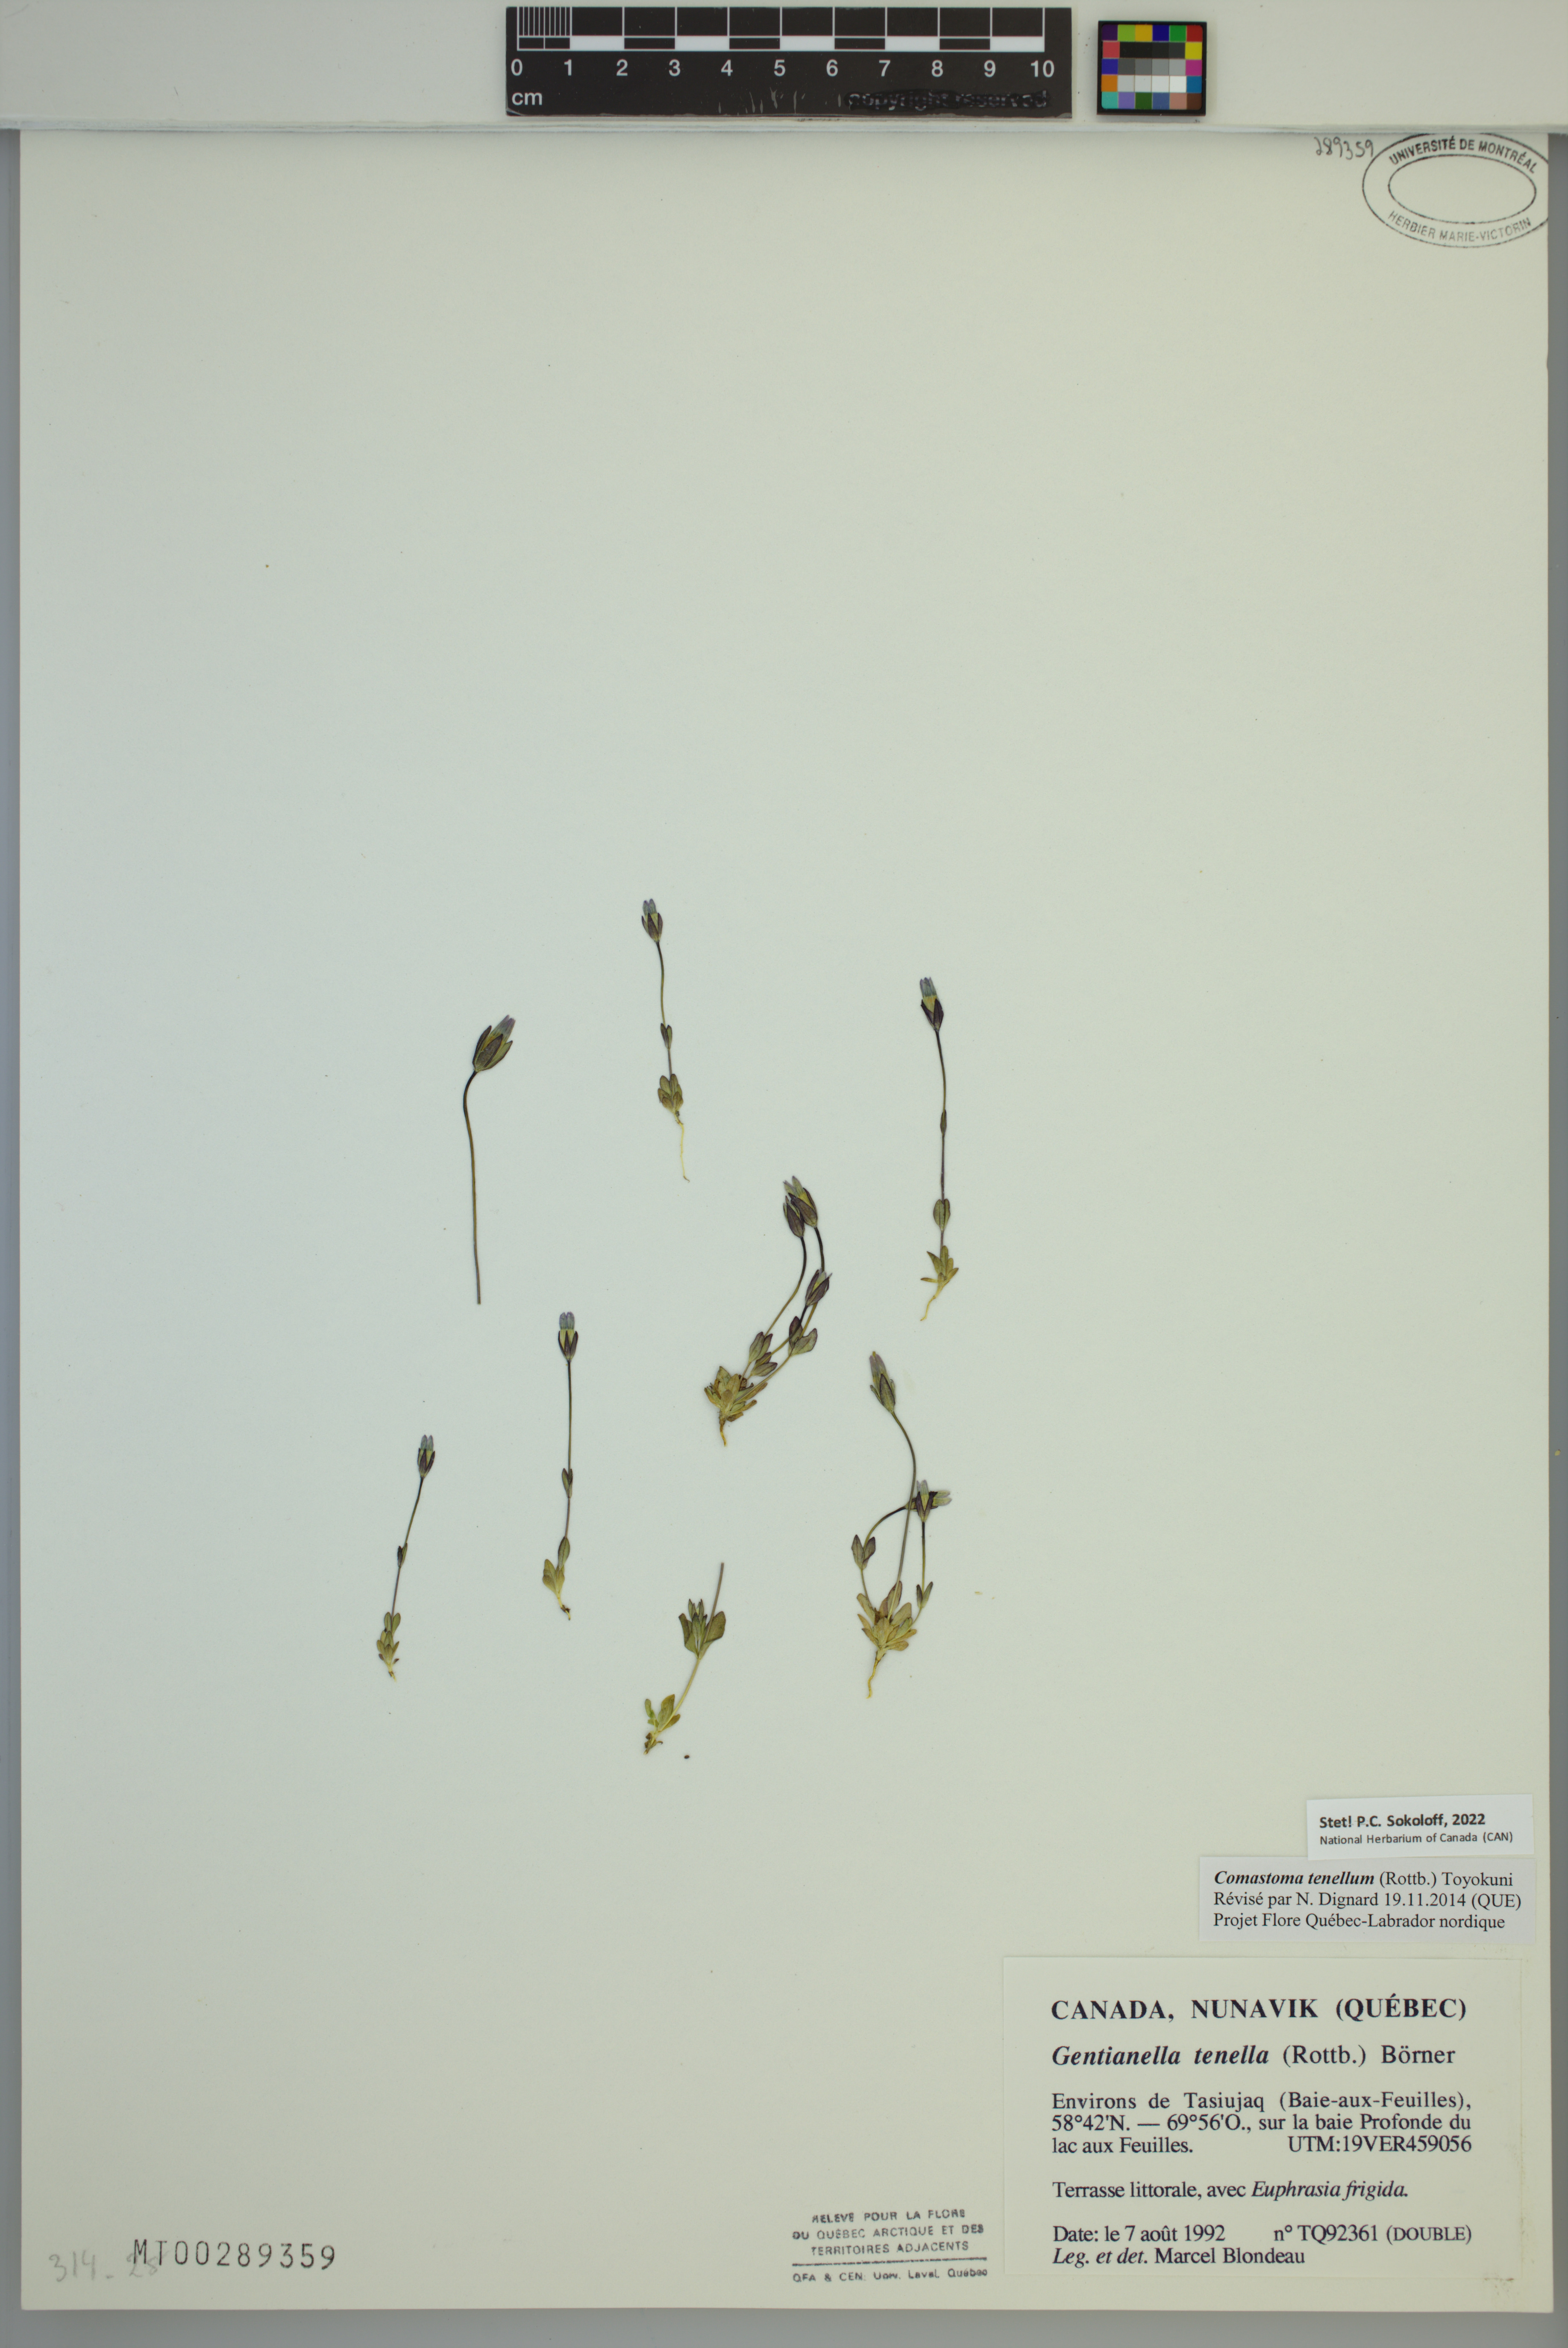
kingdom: Plantae
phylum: Tracheophyta
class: Magnoliopsida
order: Gentianales
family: Gentianaceae
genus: Comastoma
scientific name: Comastoma tenellum
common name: Dane's dwarf gentian
